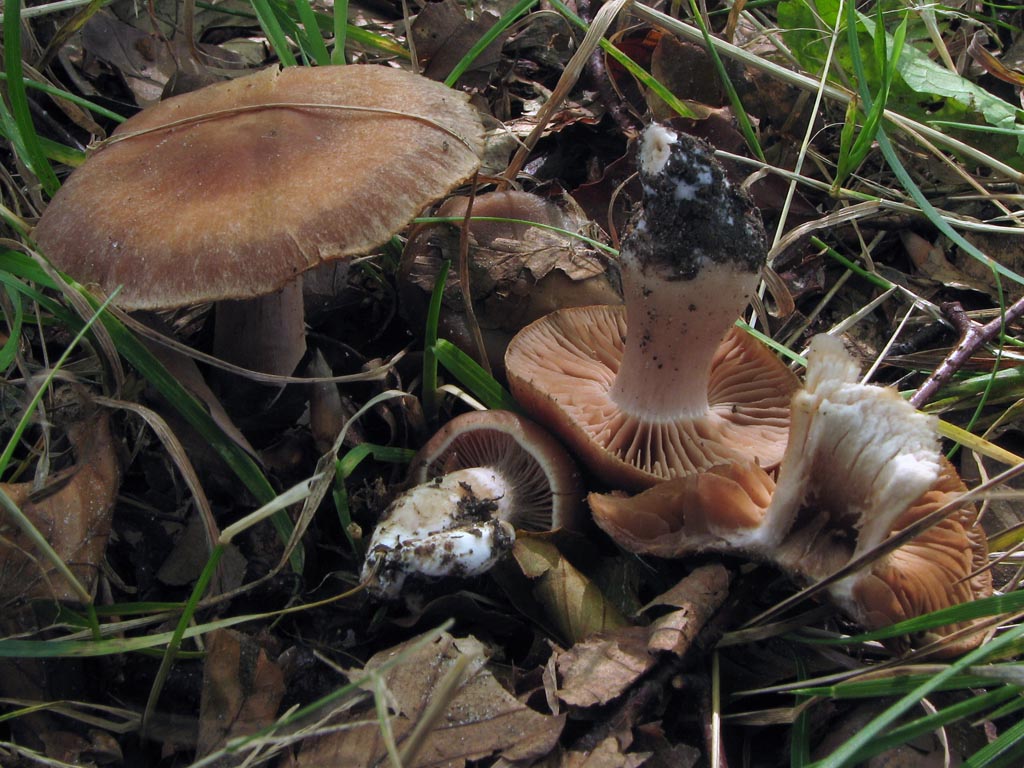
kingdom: Fungi
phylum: Basidiomycota
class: Agaricomycetes
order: Agaricales
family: Cortinariaceae
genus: Cortinarius
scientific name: Cortinarius
